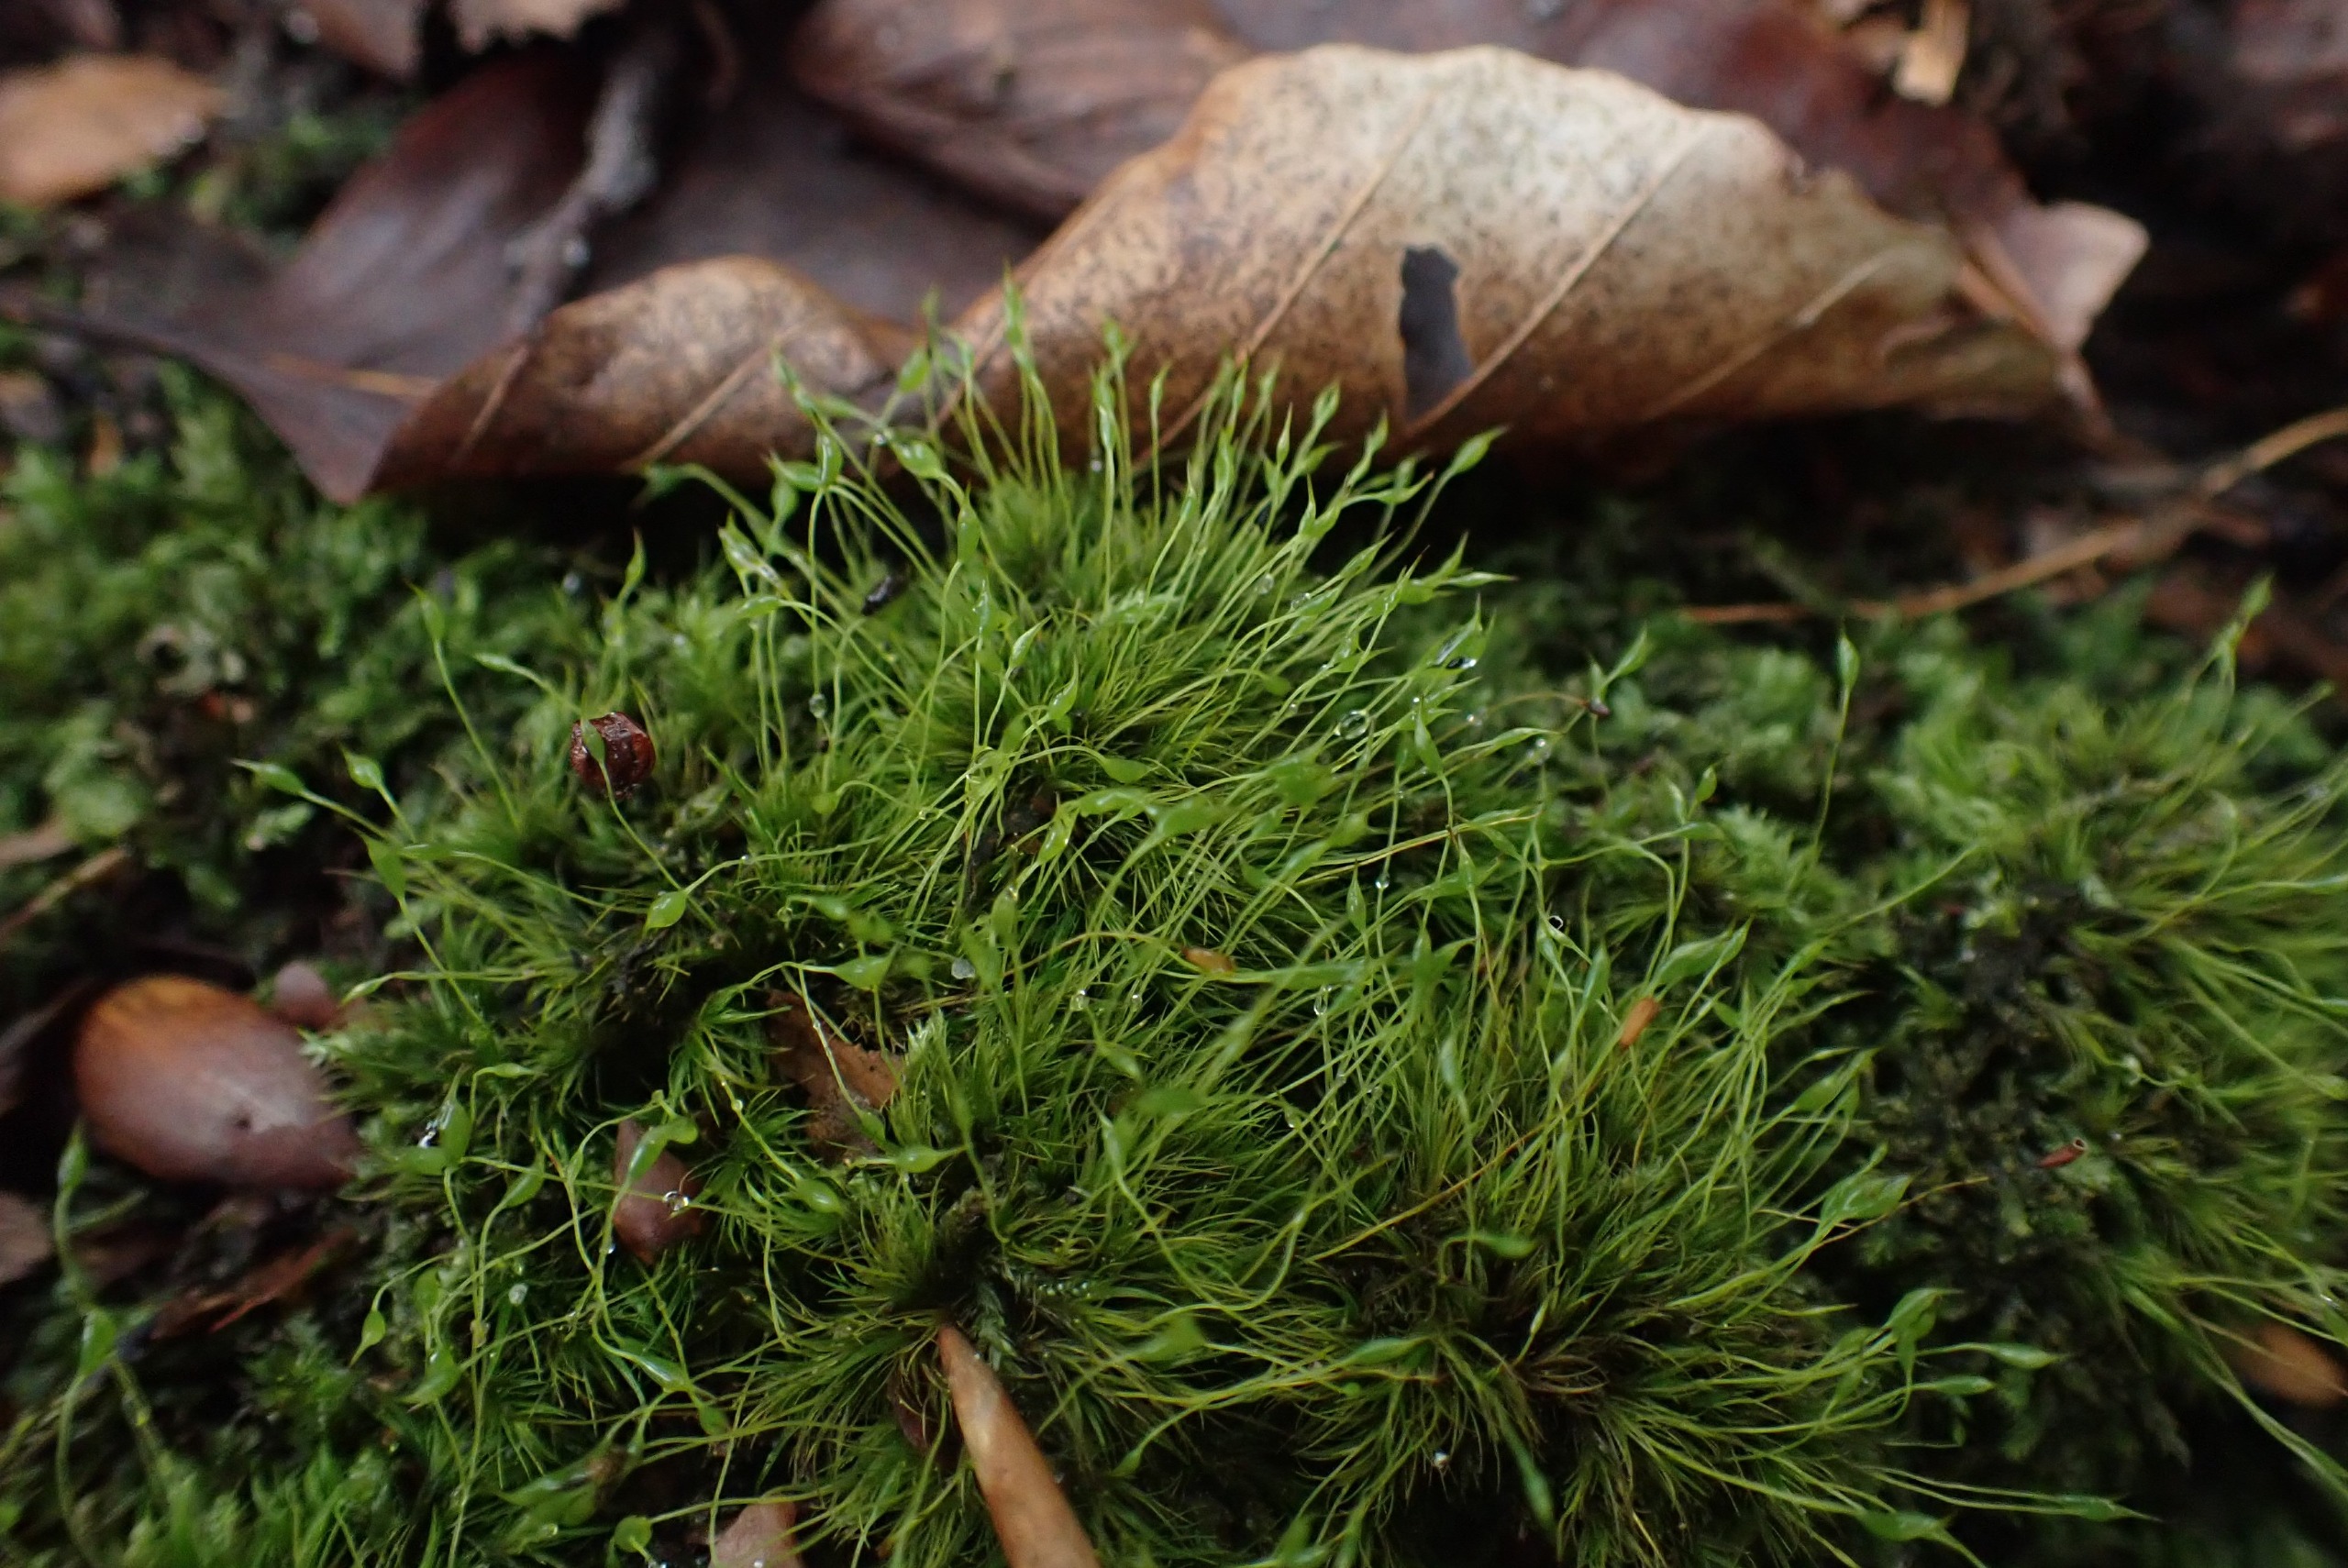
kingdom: Plantae
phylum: Bryophyta
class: Bryopsida
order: Dicranales
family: Dicranellaceae
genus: Dicranella
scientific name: Dicranella heteromalla
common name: Almindelig fløjlsmos
